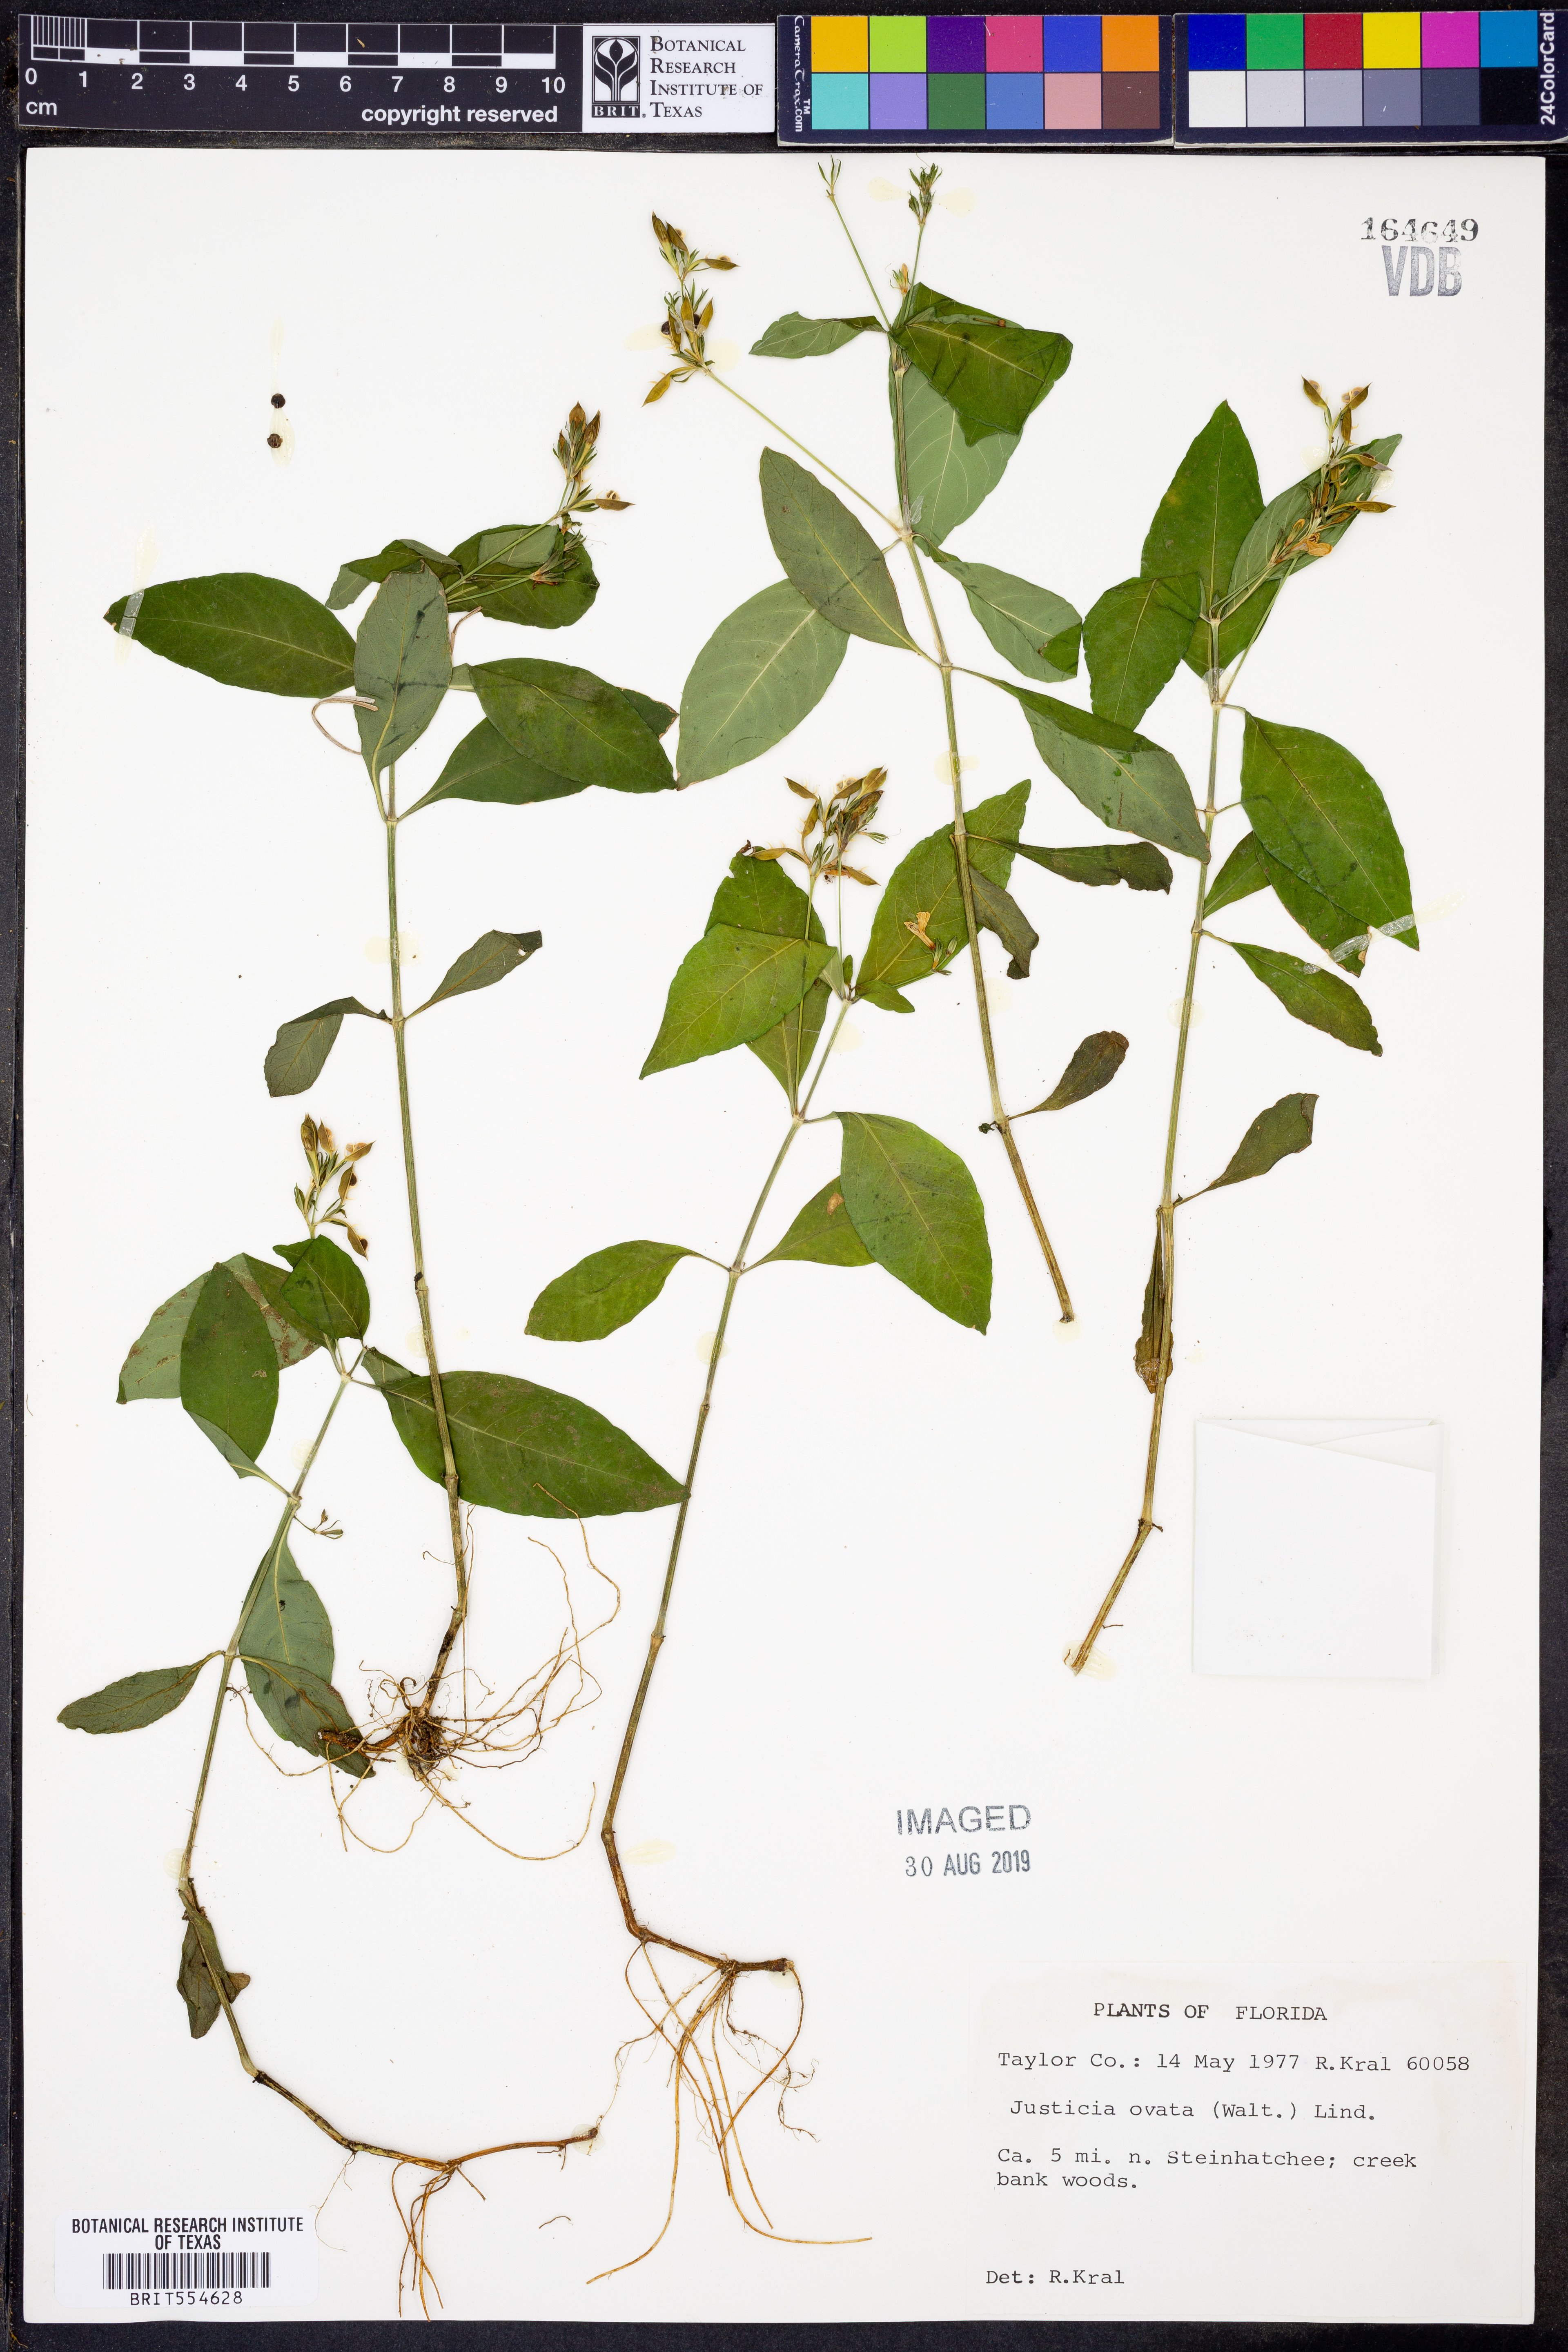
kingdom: Plantae
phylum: Tracheophyta
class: Magnoliopsida
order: Lamiales
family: Acanthaceae
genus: Dianthera
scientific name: Dianthera ovata
